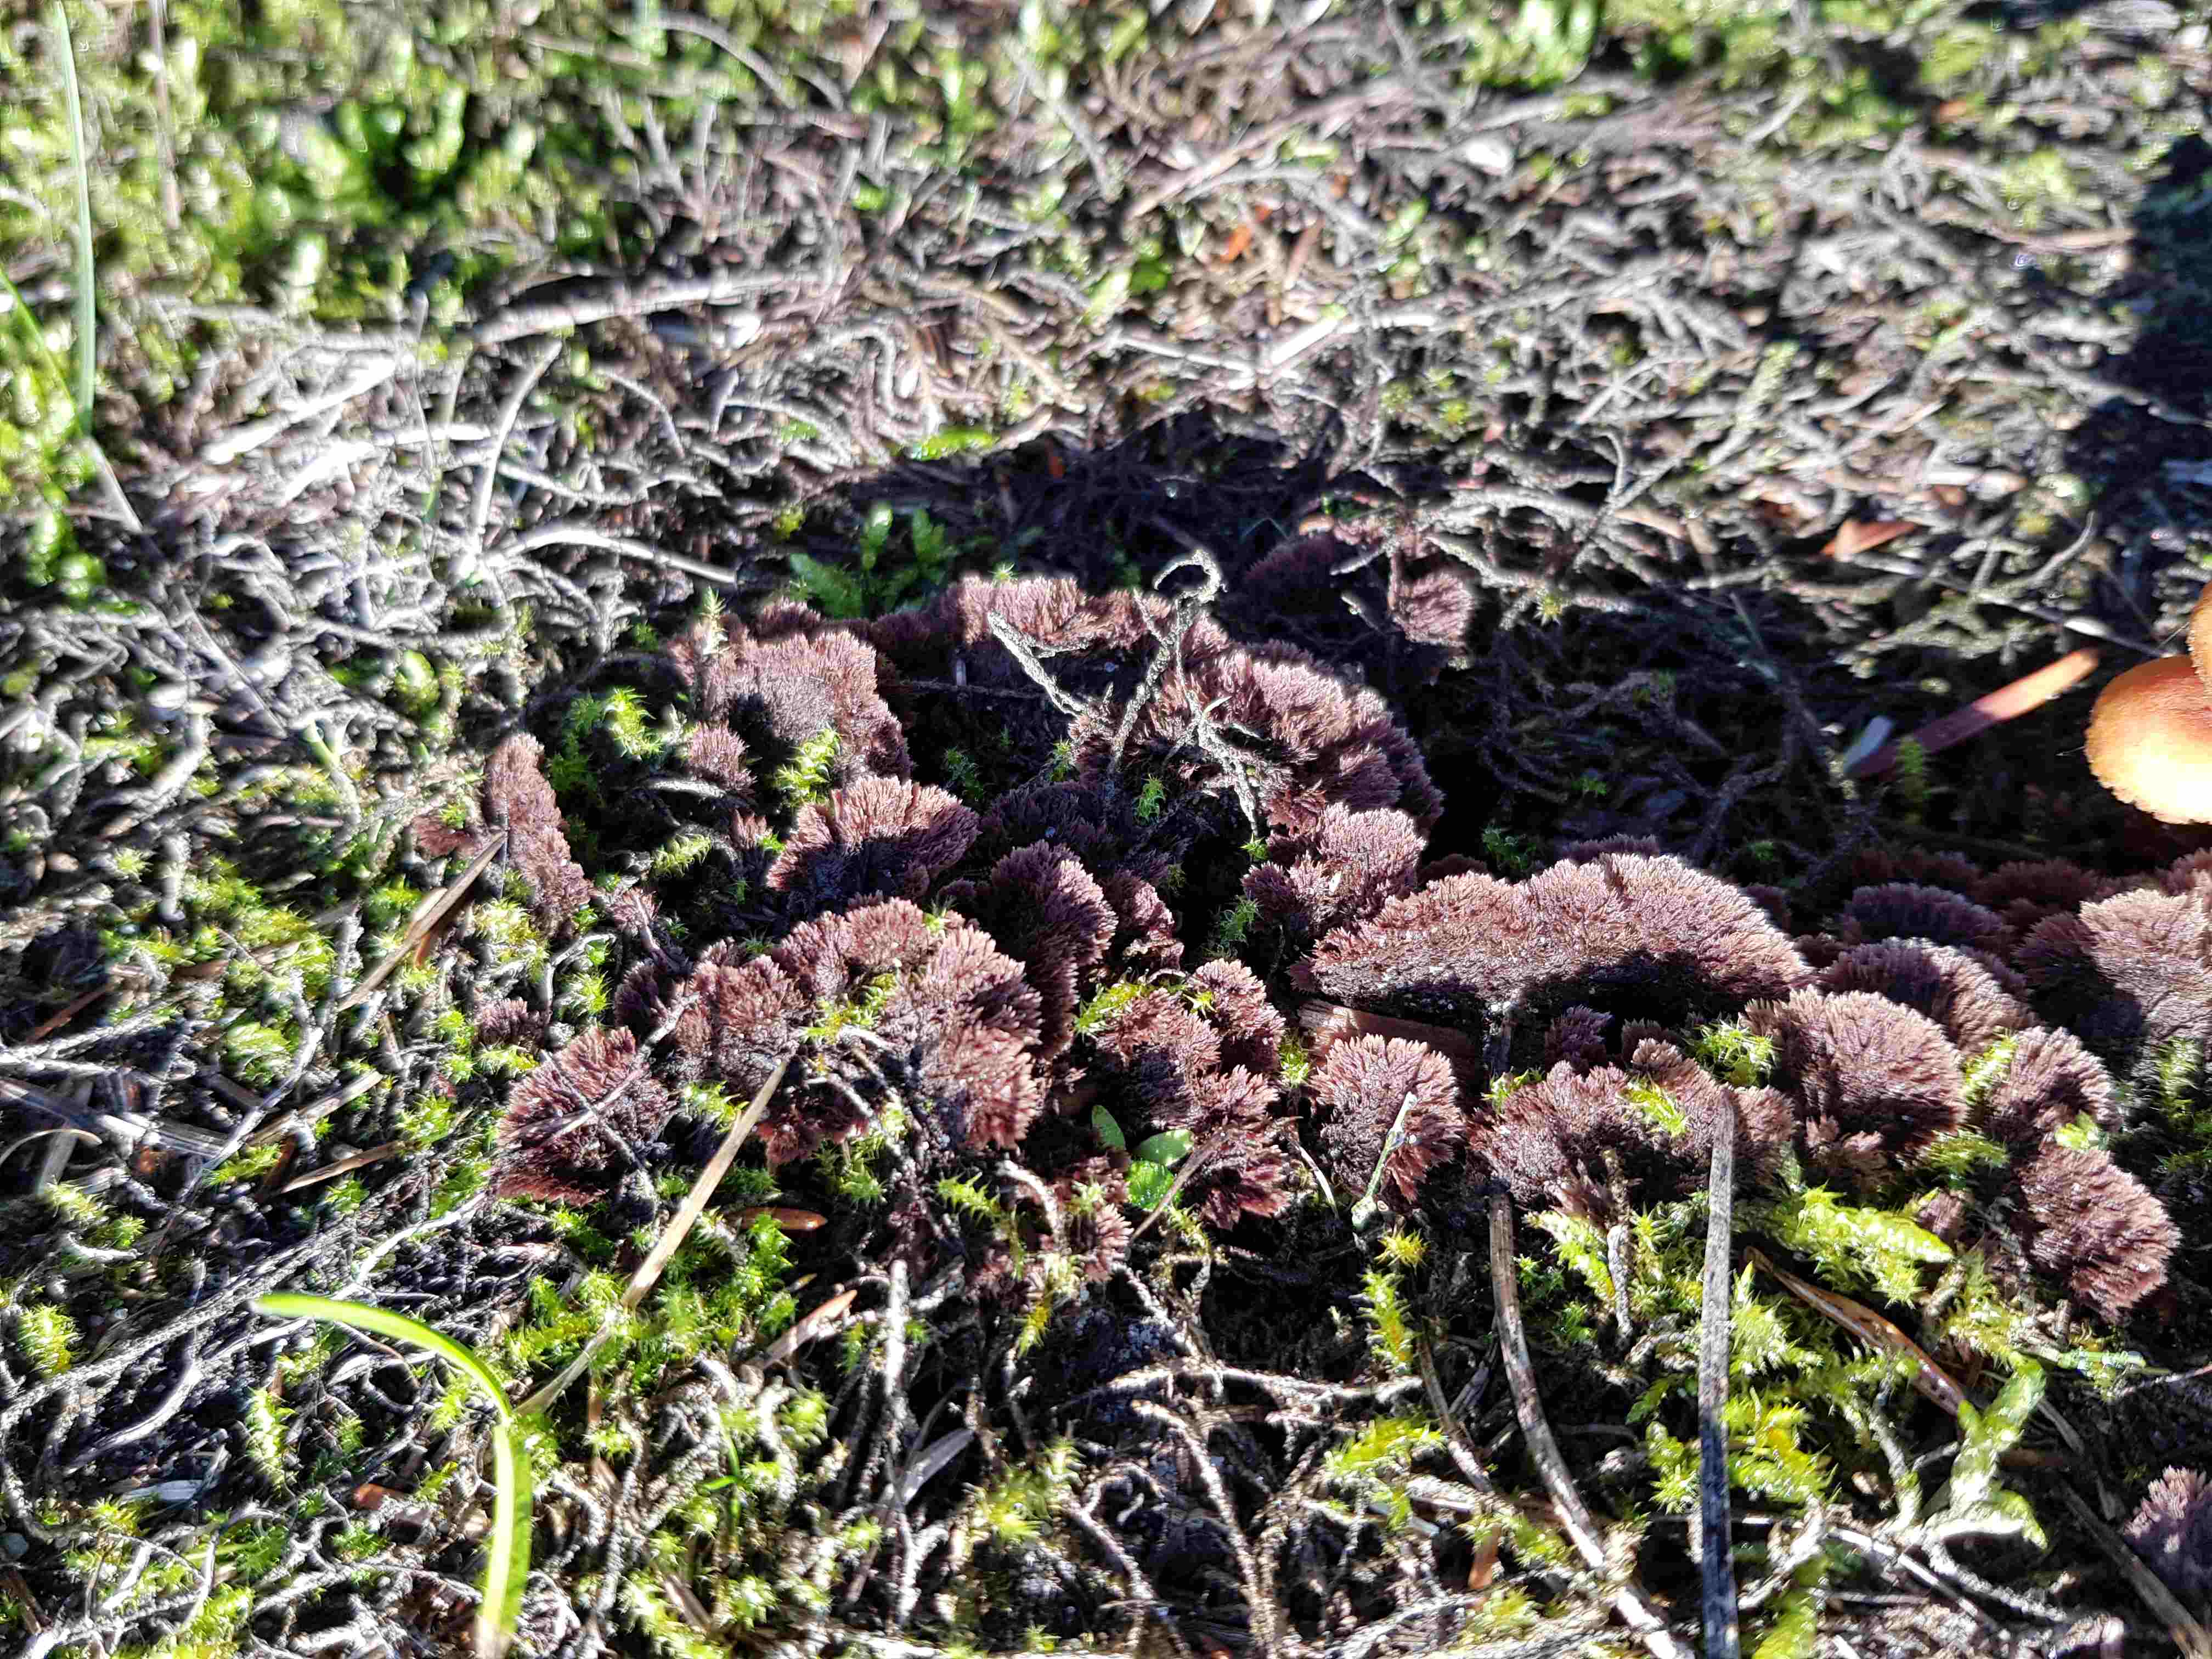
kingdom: Fungi
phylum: Basidiomycota
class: Agaricomycetes
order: Thelephorales
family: Thelephoraceae
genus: Thelephora
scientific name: Thelephora terrestris
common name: fliget frynsesvamp
